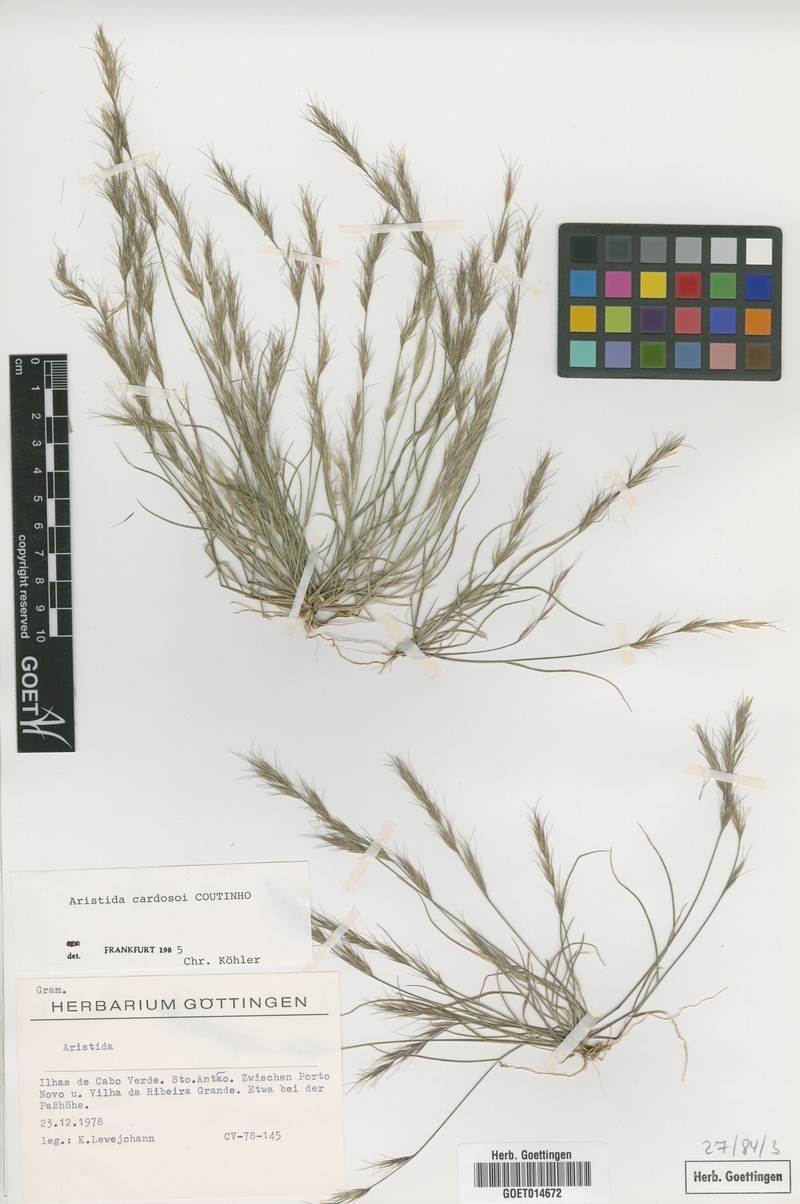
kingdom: Plantae
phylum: Tracheophyta
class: Liliopsida
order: Poales
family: Poaceae
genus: Aristida
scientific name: Aristida adscensionis
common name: Sixweeks threeawn
